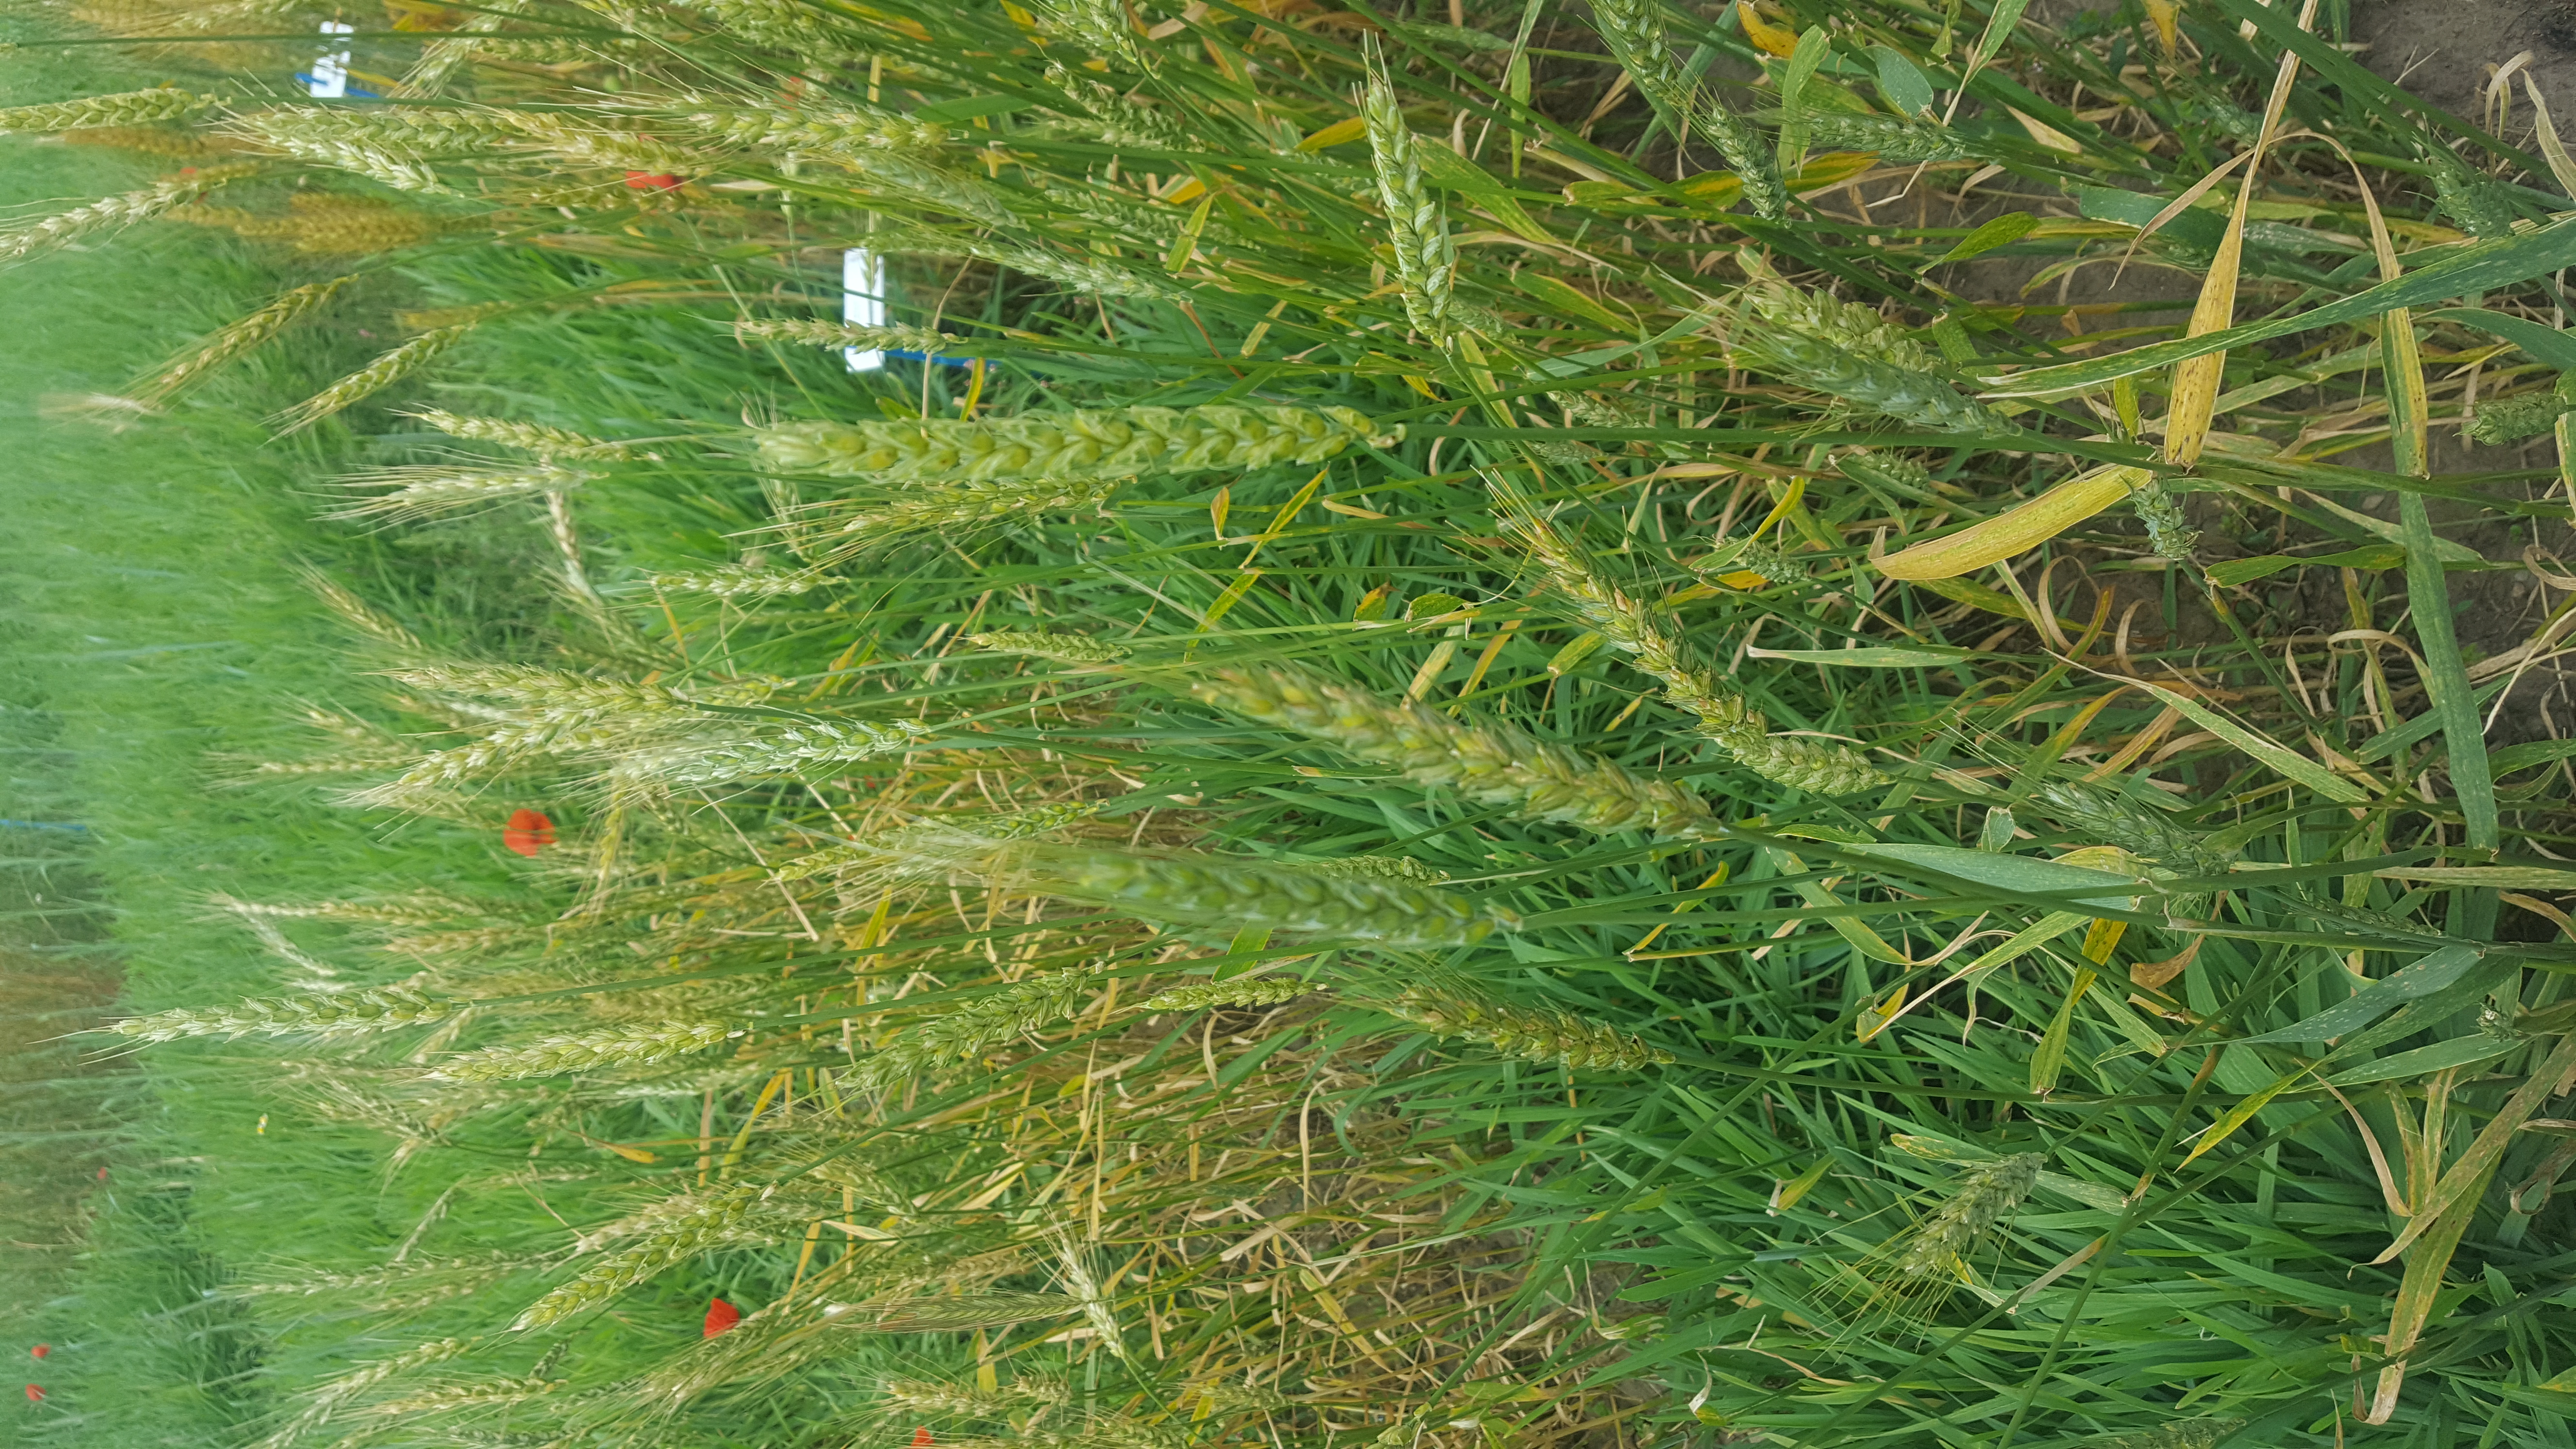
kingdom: Plantae
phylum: Tracheophyta
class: Liliopsida
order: Poales
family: Poaceae
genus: Triticum
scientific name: Triticum aestivum
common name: Common wheat
